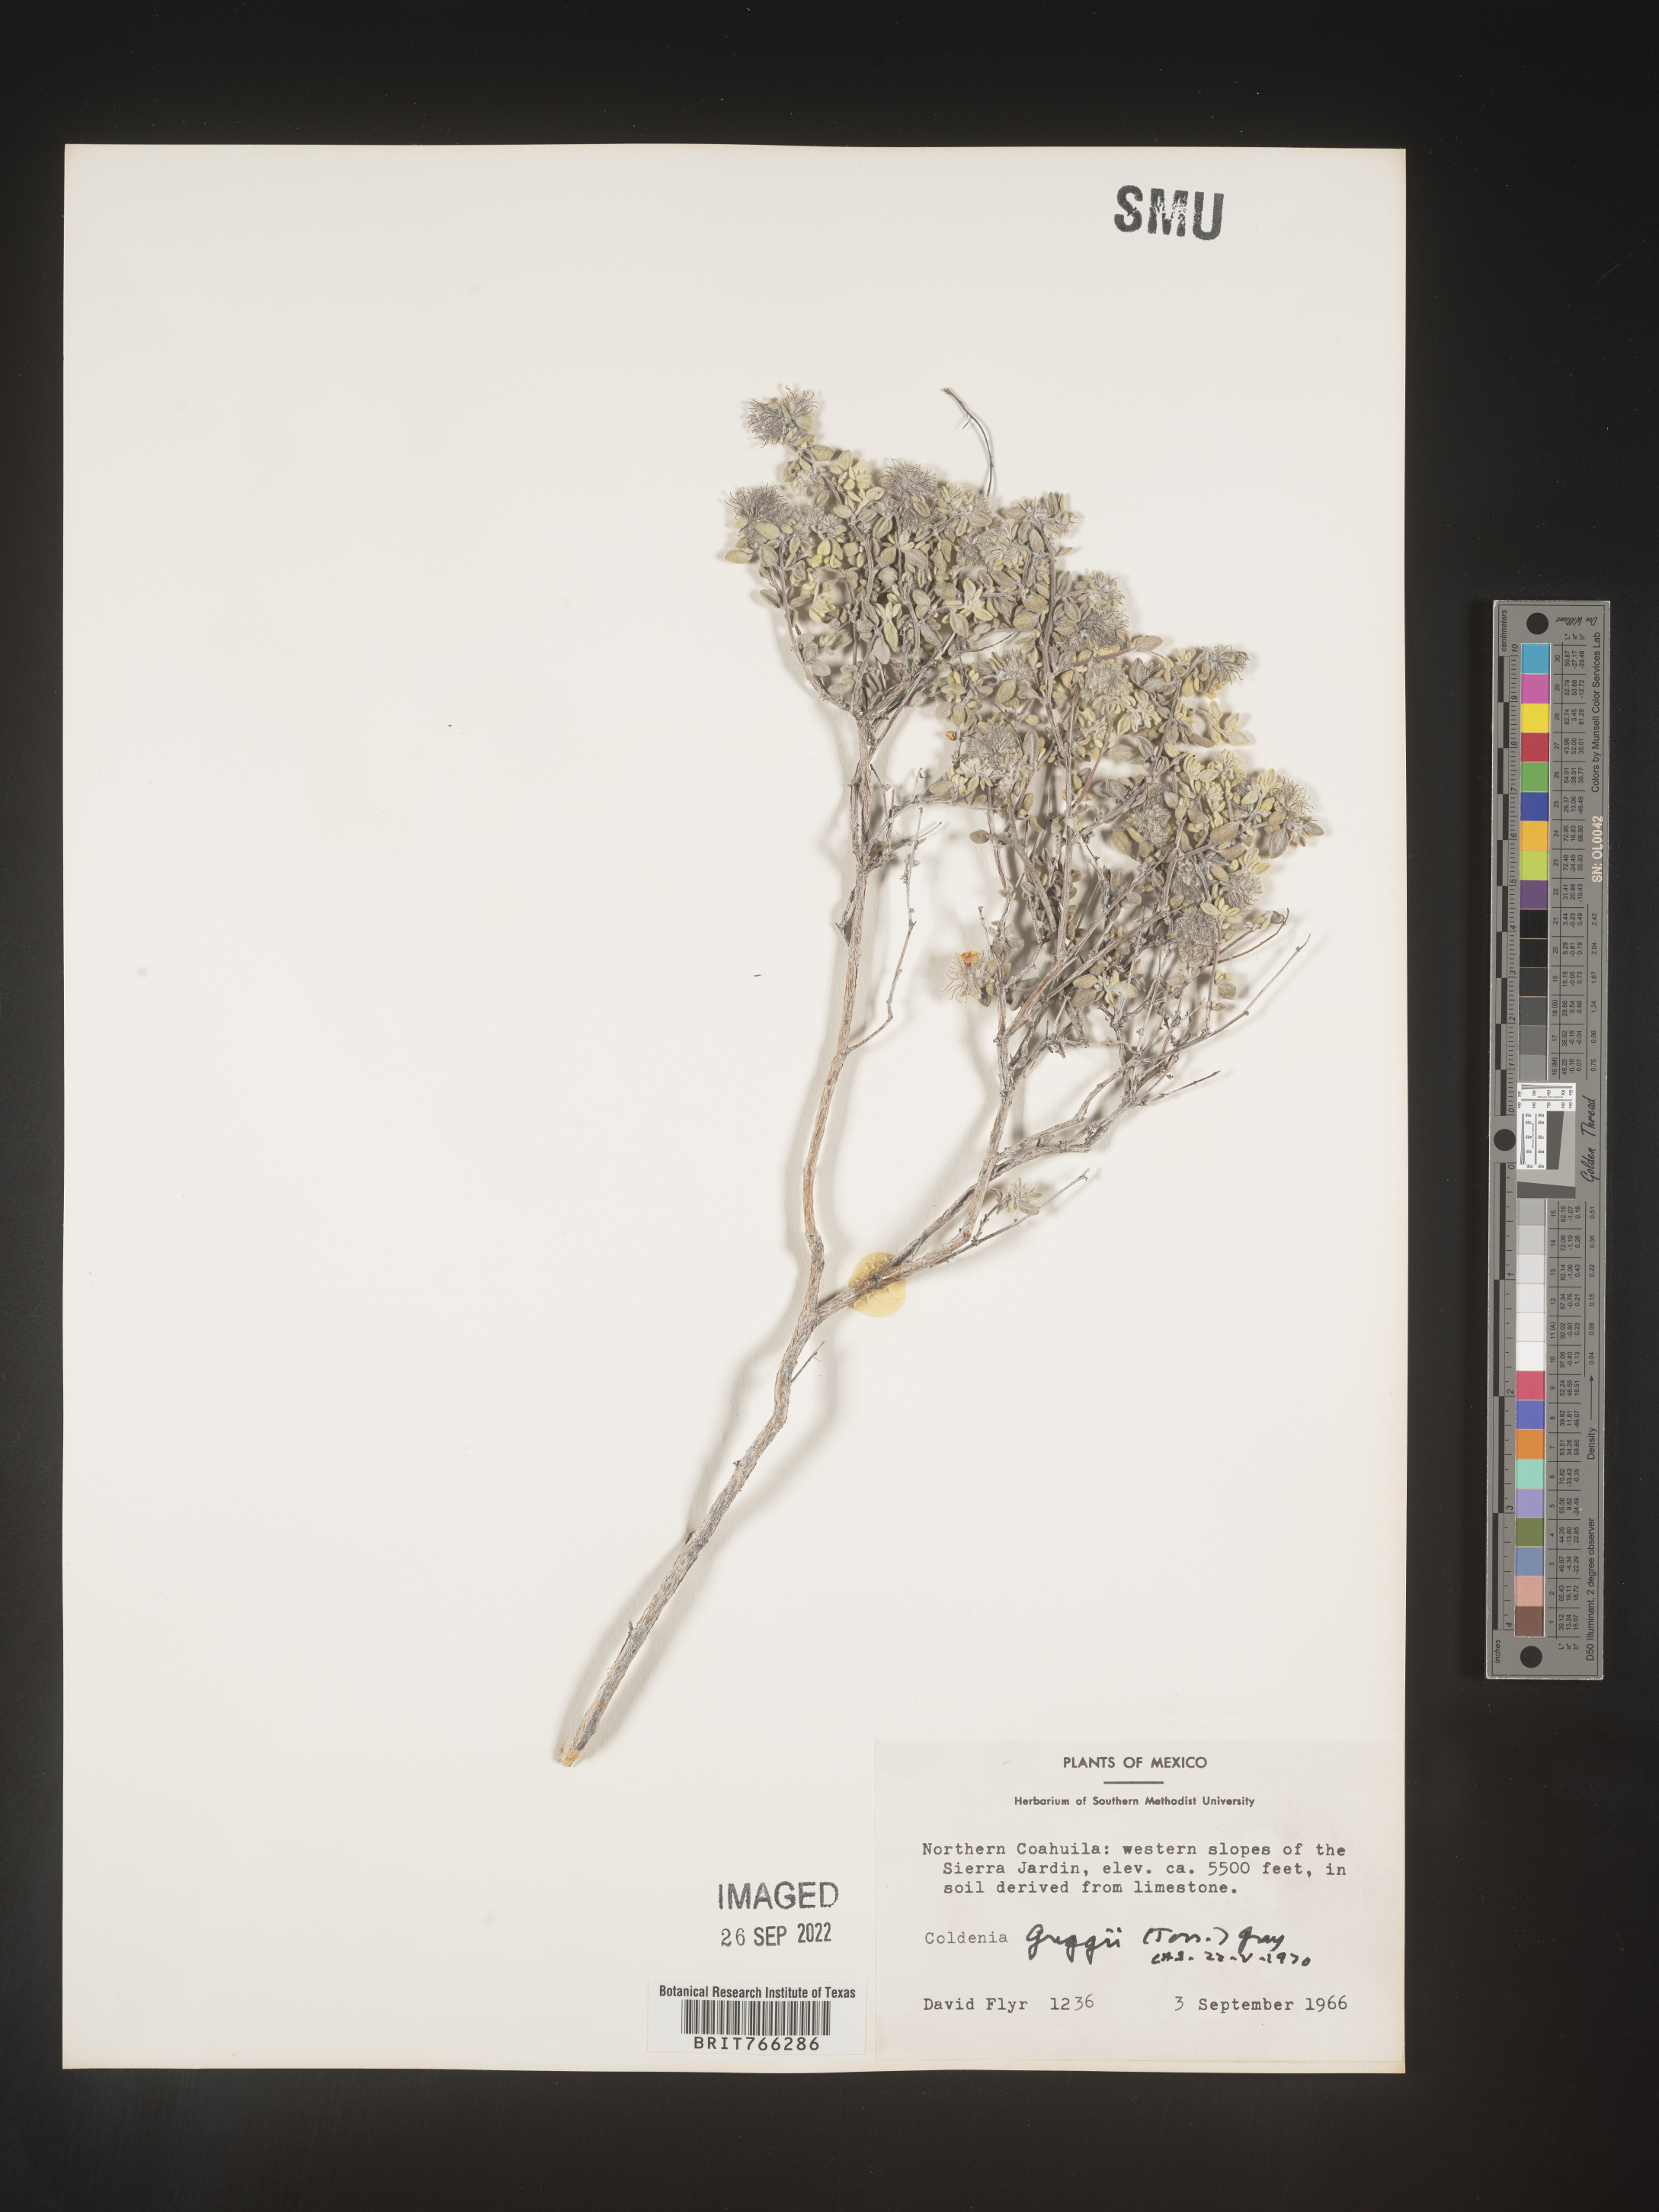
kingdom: Plantae
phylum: Tracheophyta
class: Magnoliopsida
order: Boraginales
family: Coldeniaceae
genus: Coldenia
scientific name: Coldenia
